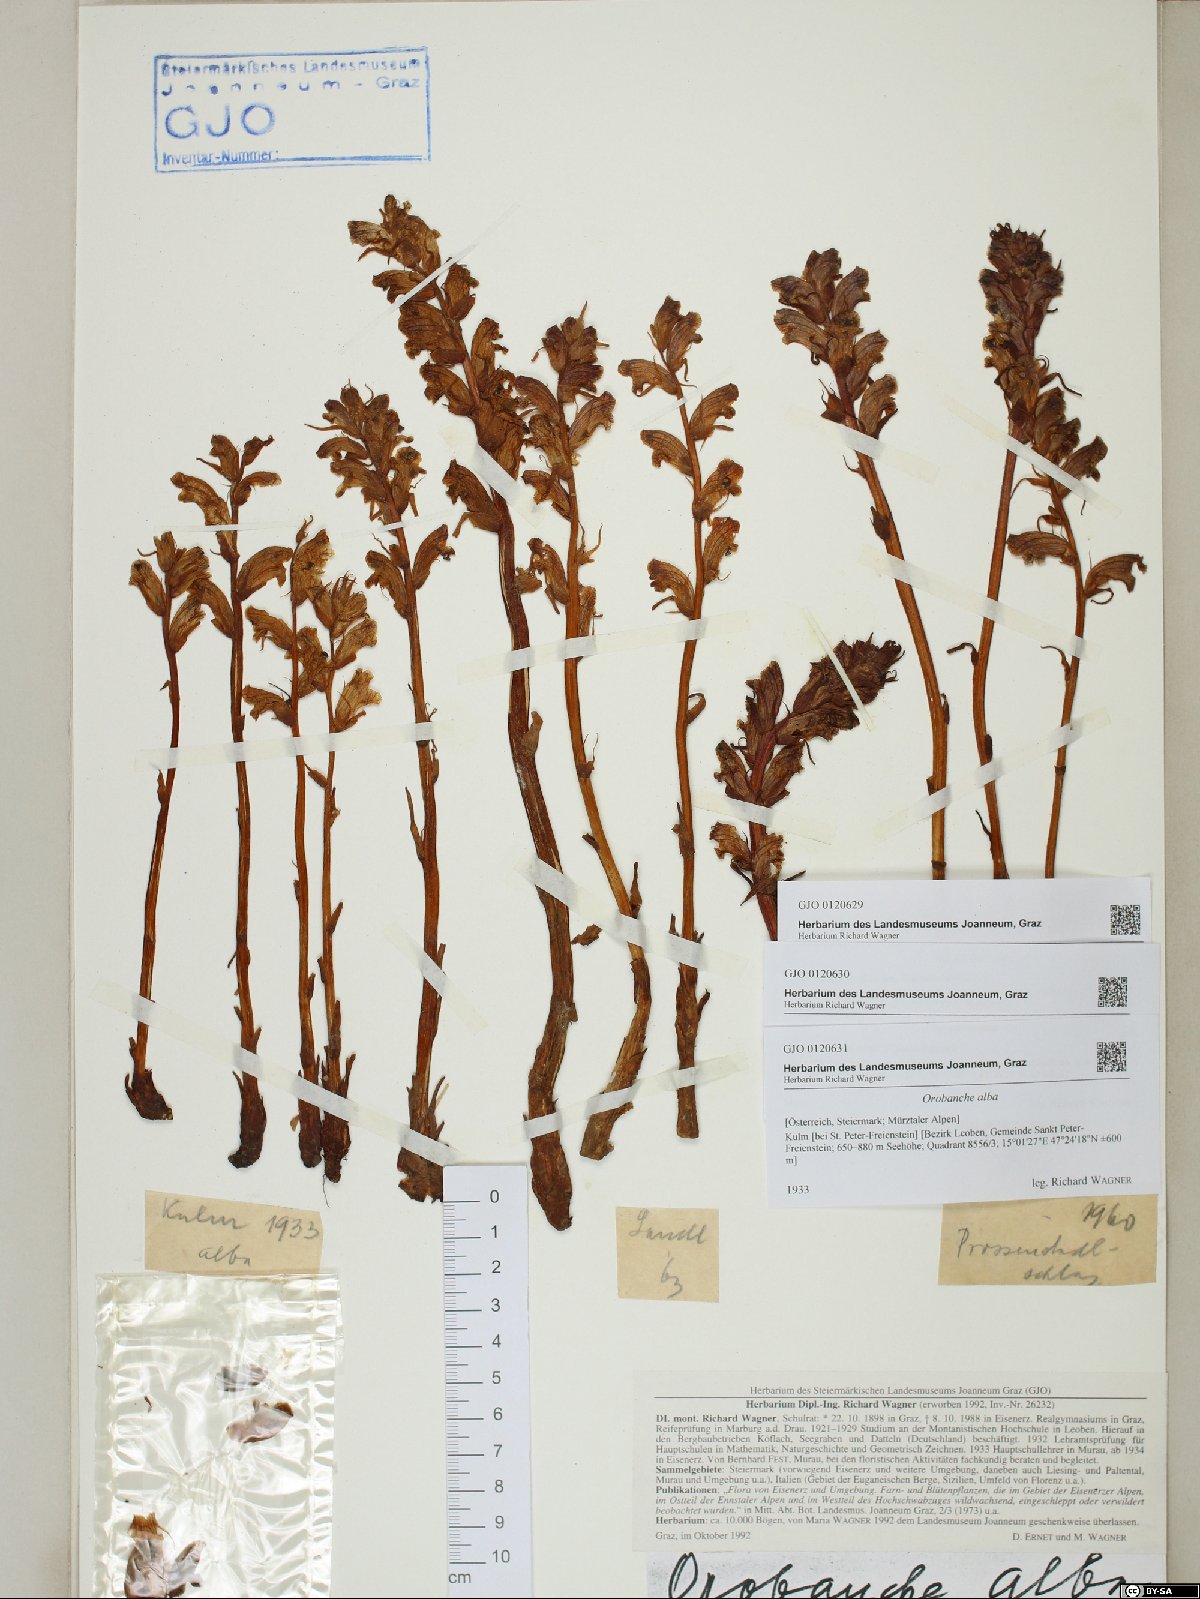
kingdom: Plantae
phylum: Tracheophyta
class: Magnoliopsida
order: Lamiales
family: Orobanchaceae
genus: Orobanche
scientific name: Orobanche alba
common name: Thyme broomrape
